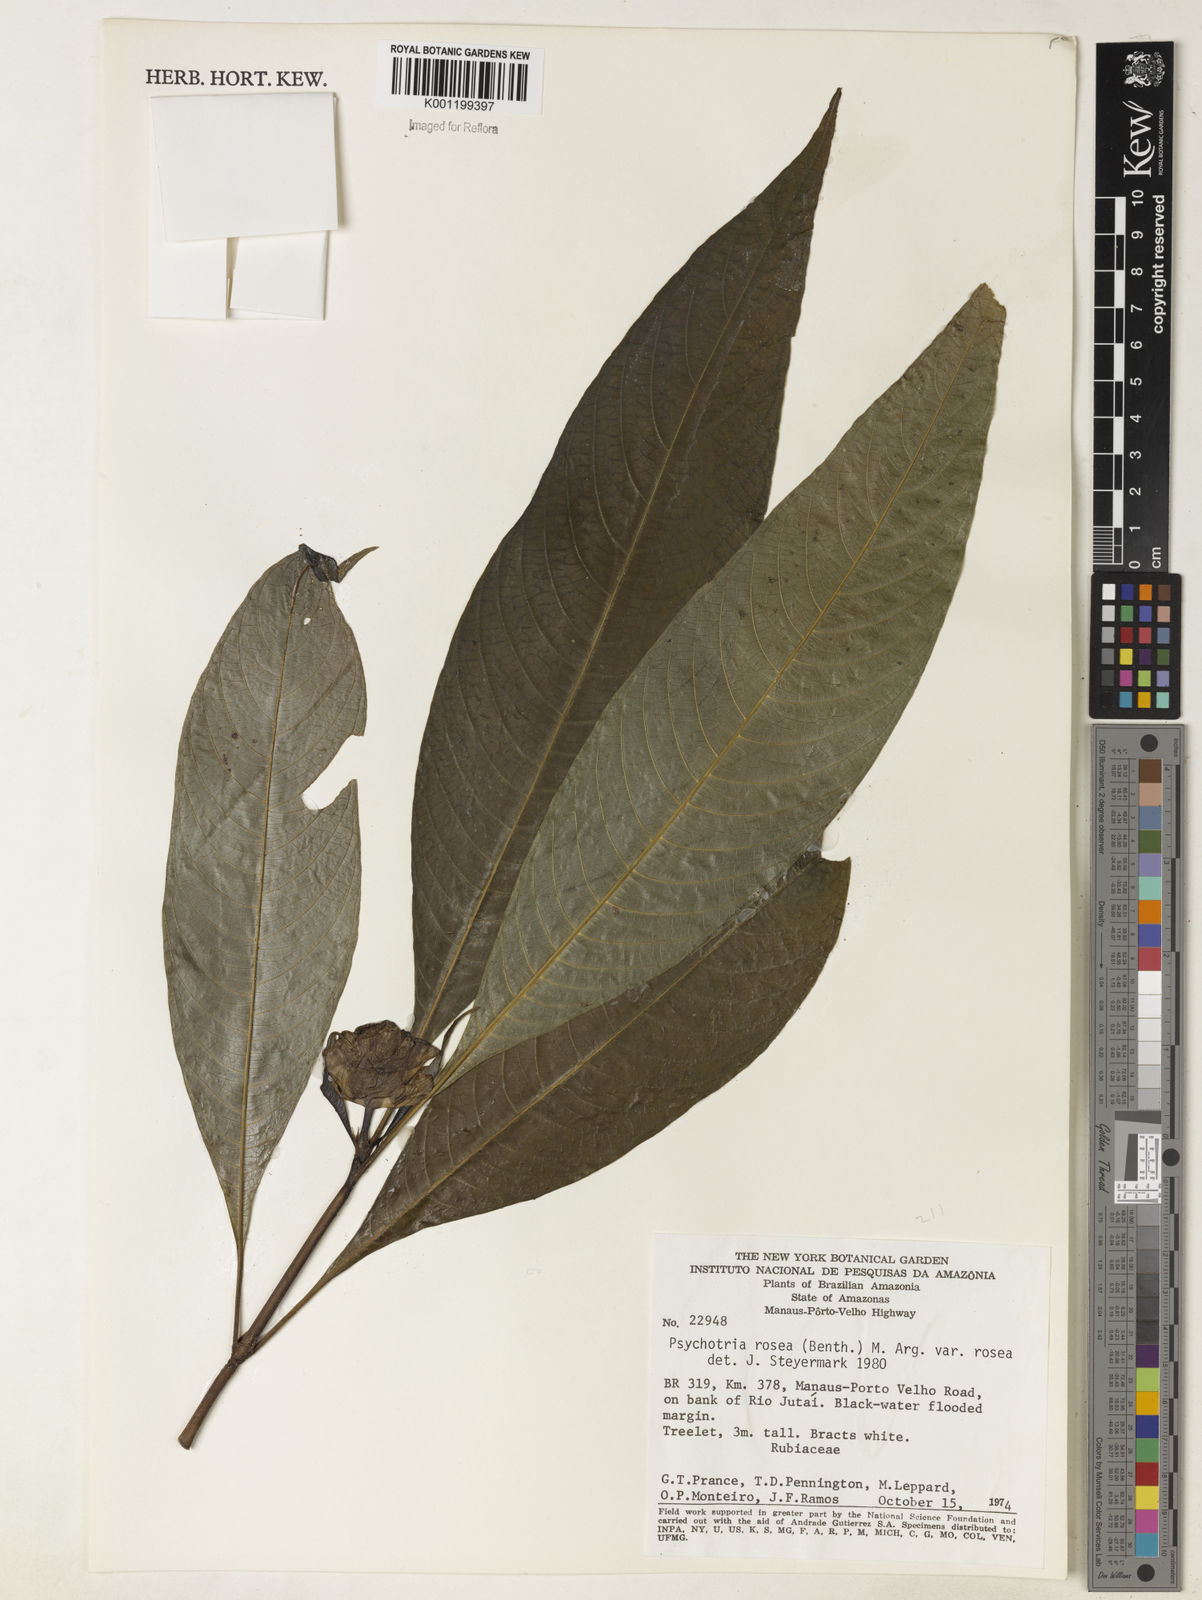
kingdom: Plantae
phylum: Tracheophyta
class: Magnoliopsida
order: Gentianales
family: Rubiaceae
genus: Psychotria
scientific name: Psychotria
